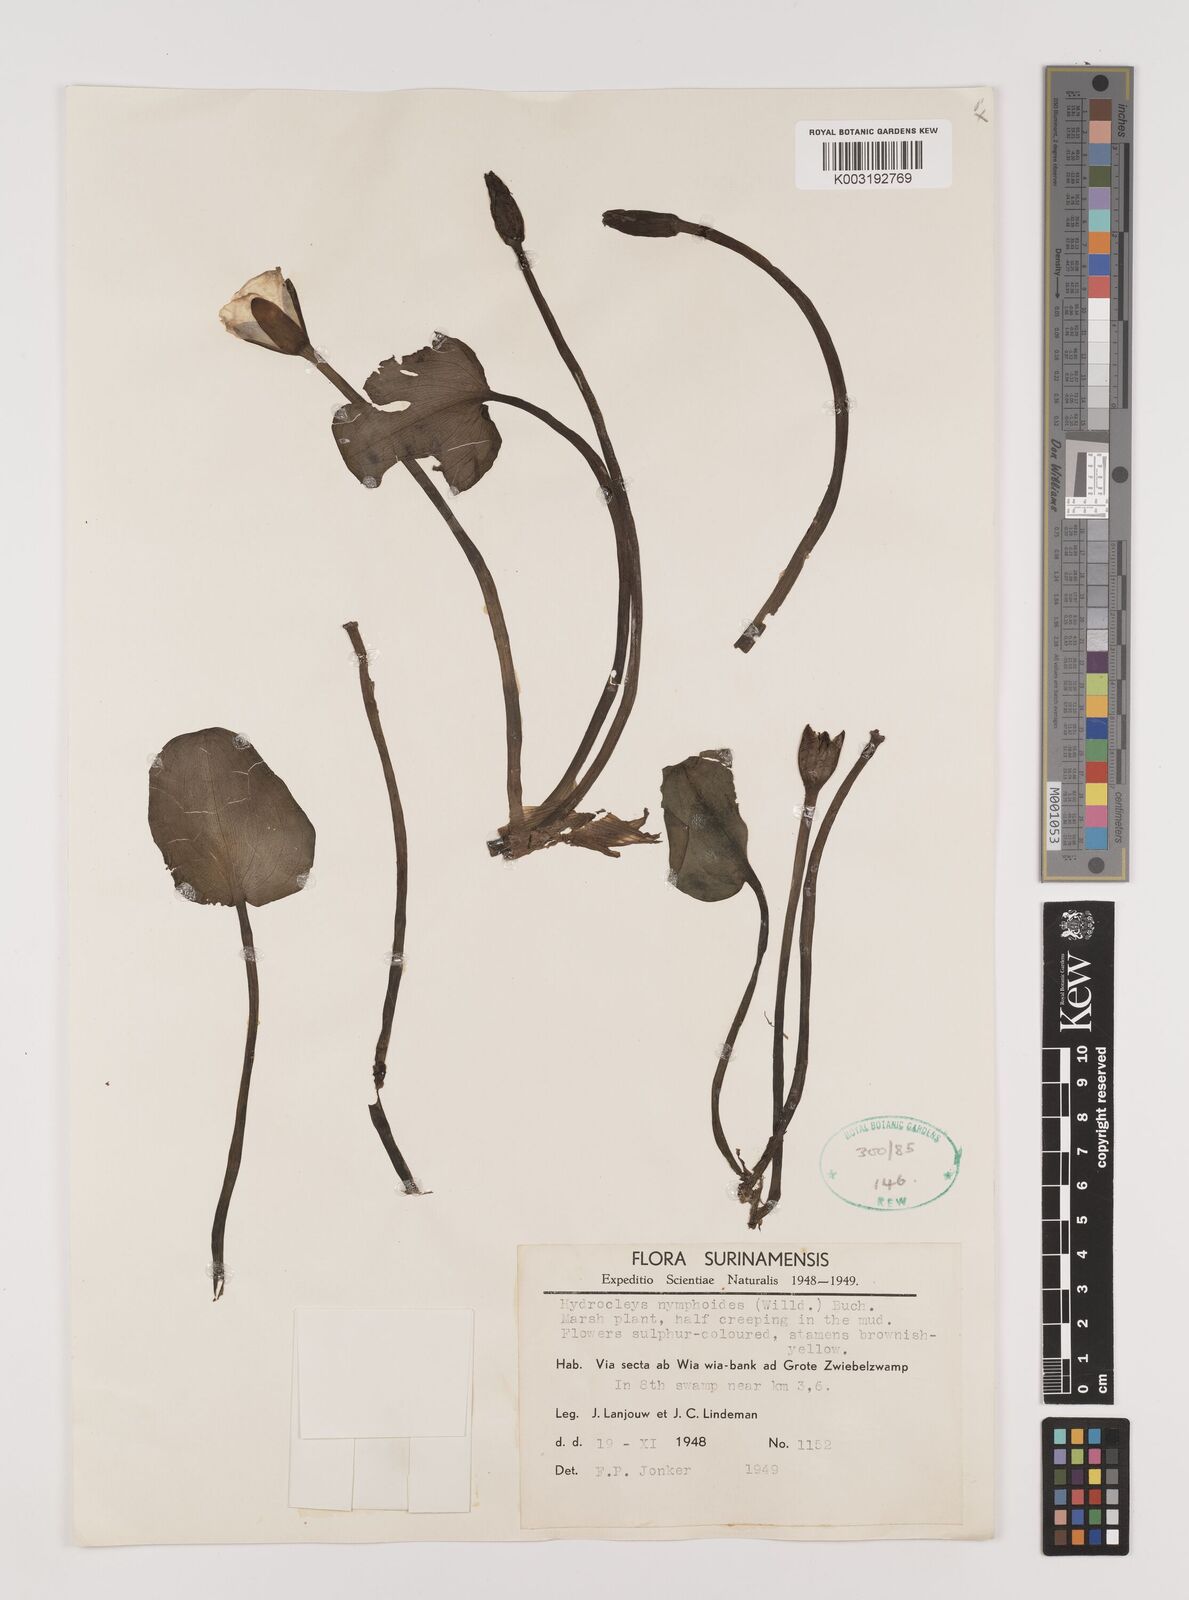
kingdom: Plantae
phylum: Tracheophyta
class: Liliopsida
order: Alismatales
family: Alismataceae
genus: Hydrocleys
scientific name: Hydrocleys nymphoides
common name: Water-poppy
